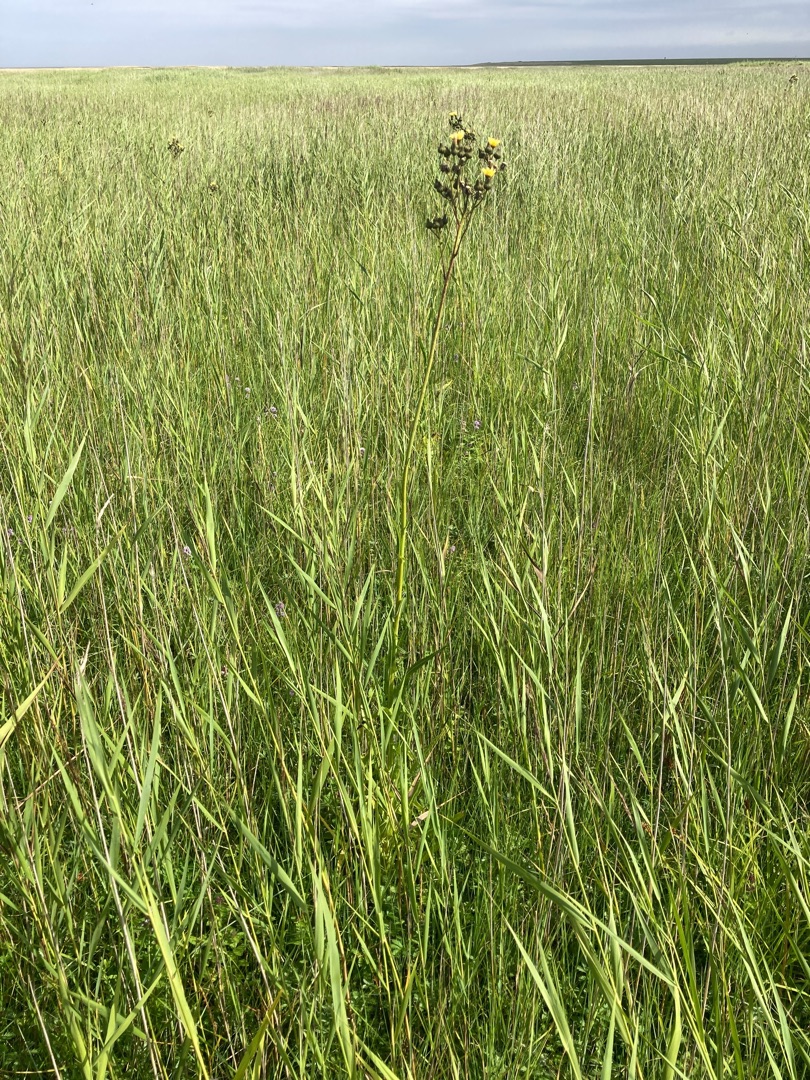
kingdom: Plantae
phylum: Tracheophyta
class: Magnoliopsida
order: Asterales
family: Asteraceae
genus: Sonchus
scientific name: Sonchus palustris
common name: Kær-svinemælk
